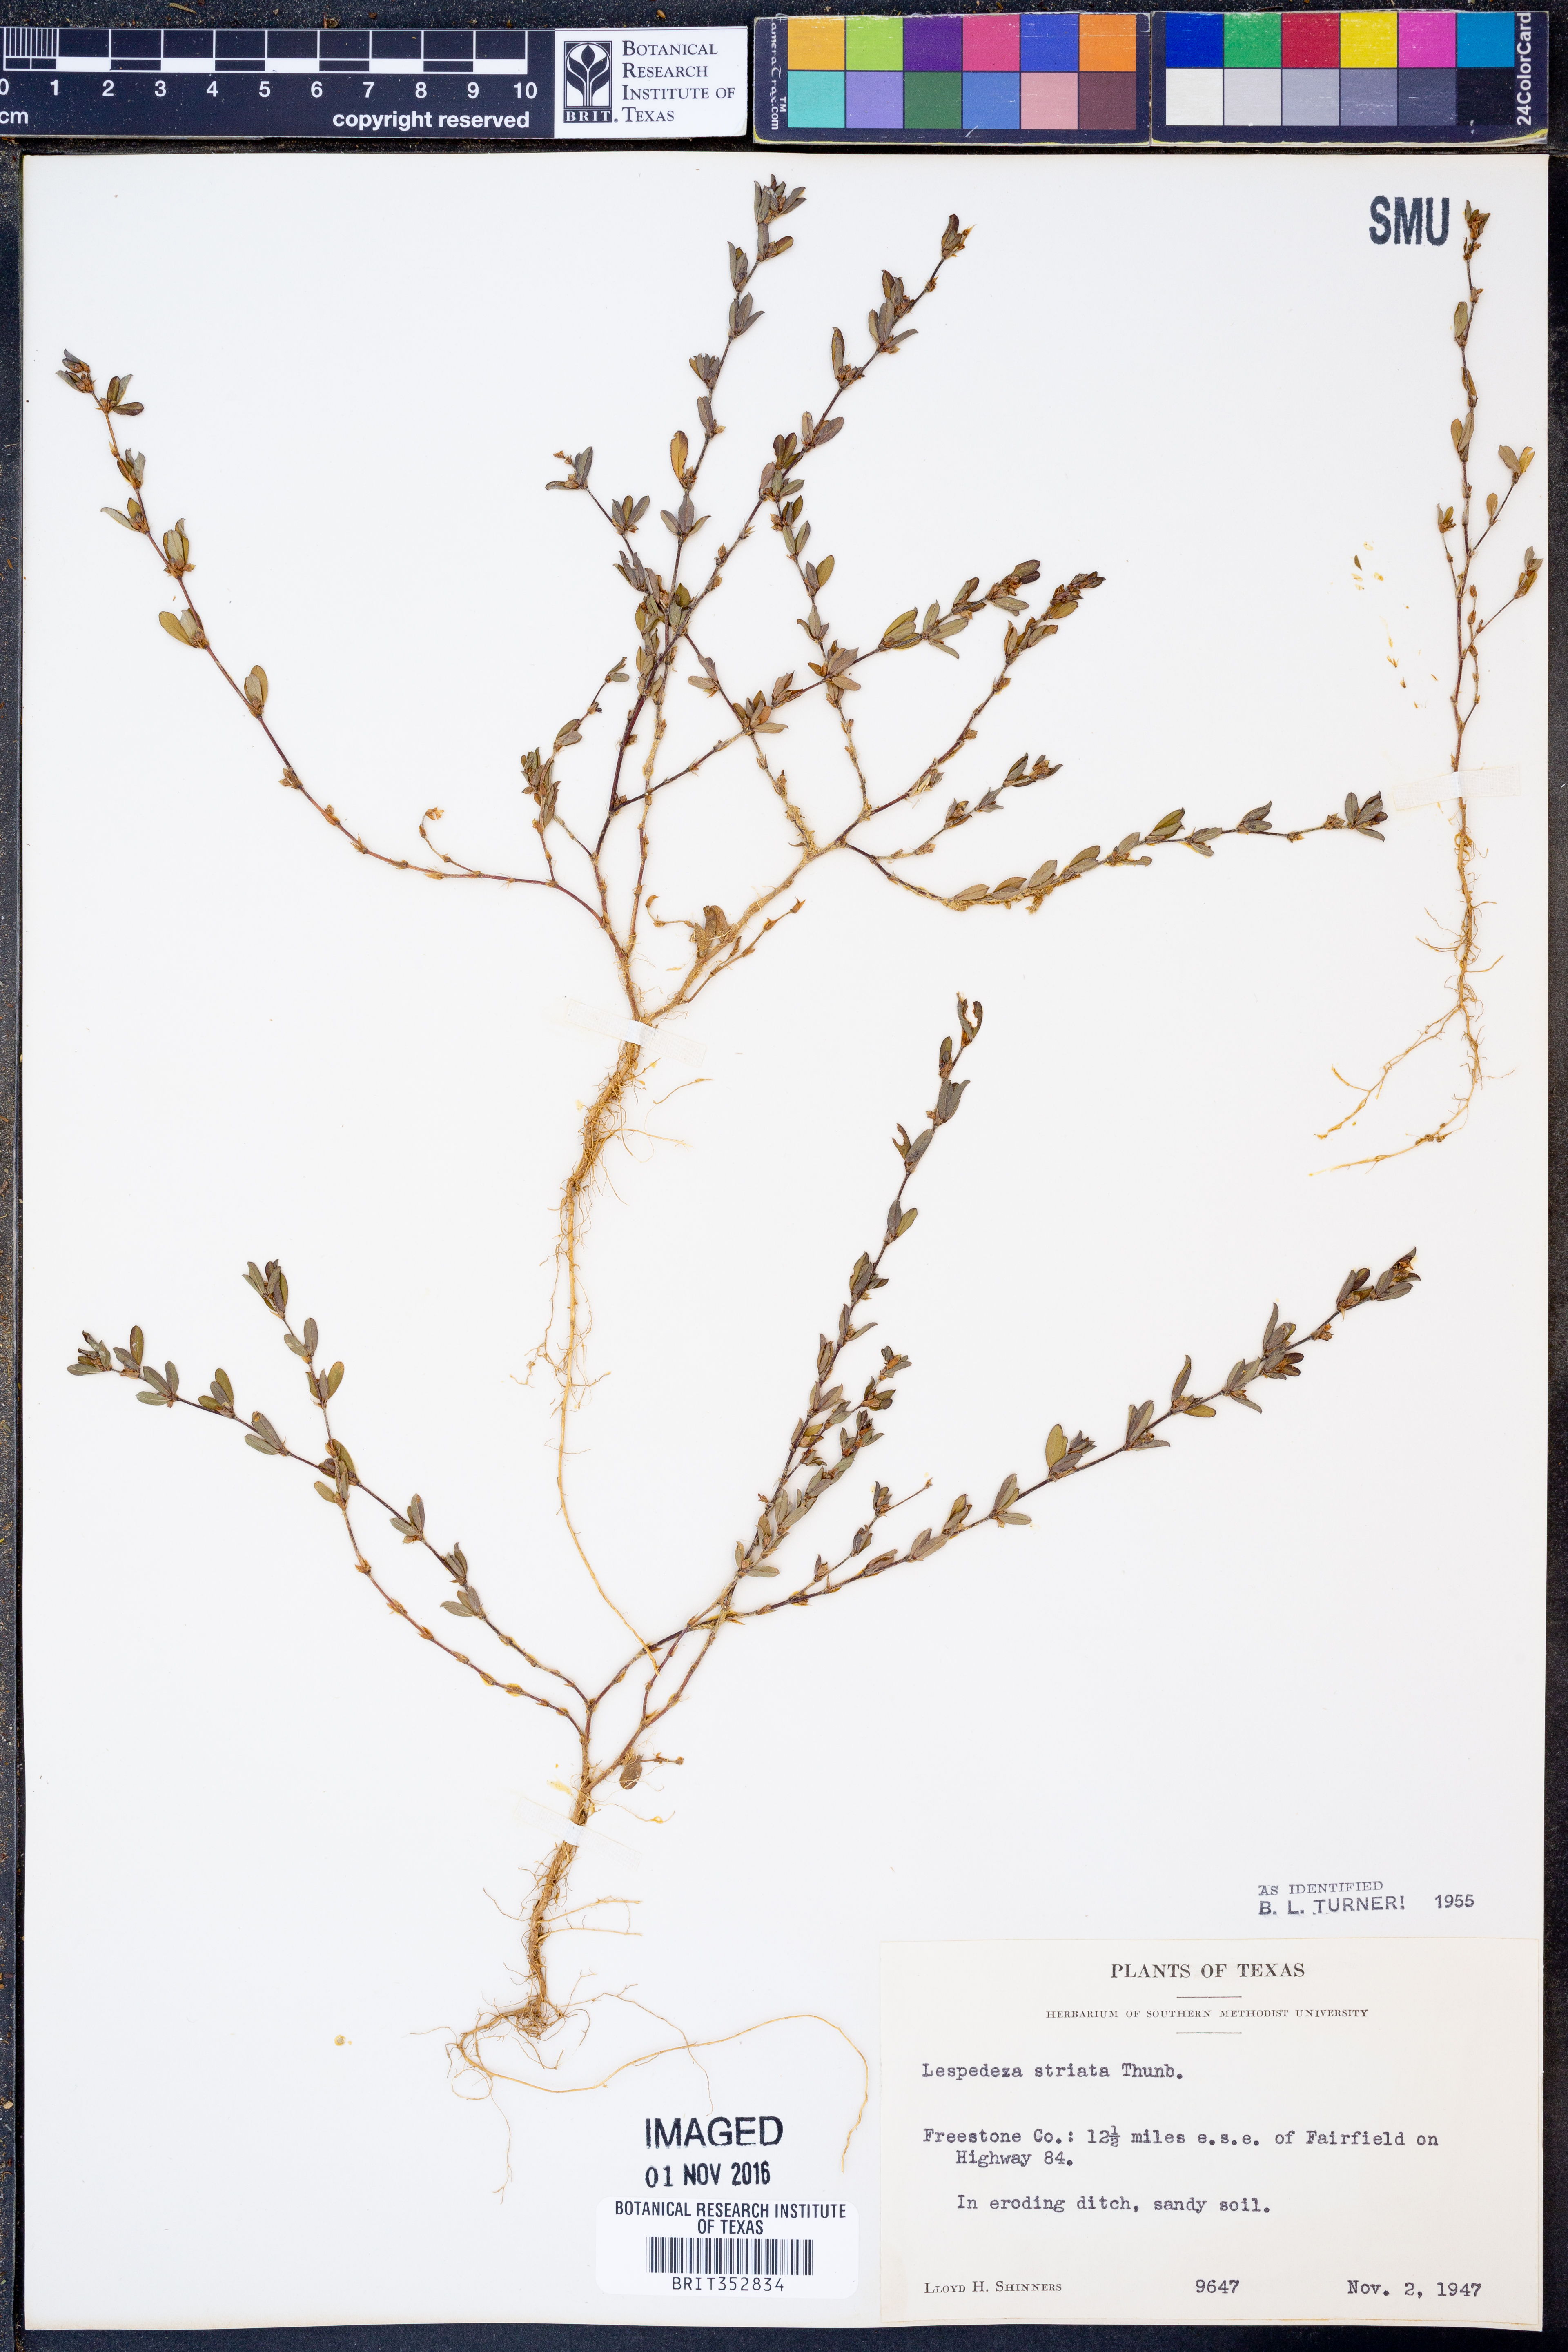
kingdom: Plantae
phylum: Tracheophyta
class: Magnoliopsida
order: Fabales
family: Fabaceae
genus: Kummerowia
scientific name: Kummerowia striata
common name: Japanese clover
